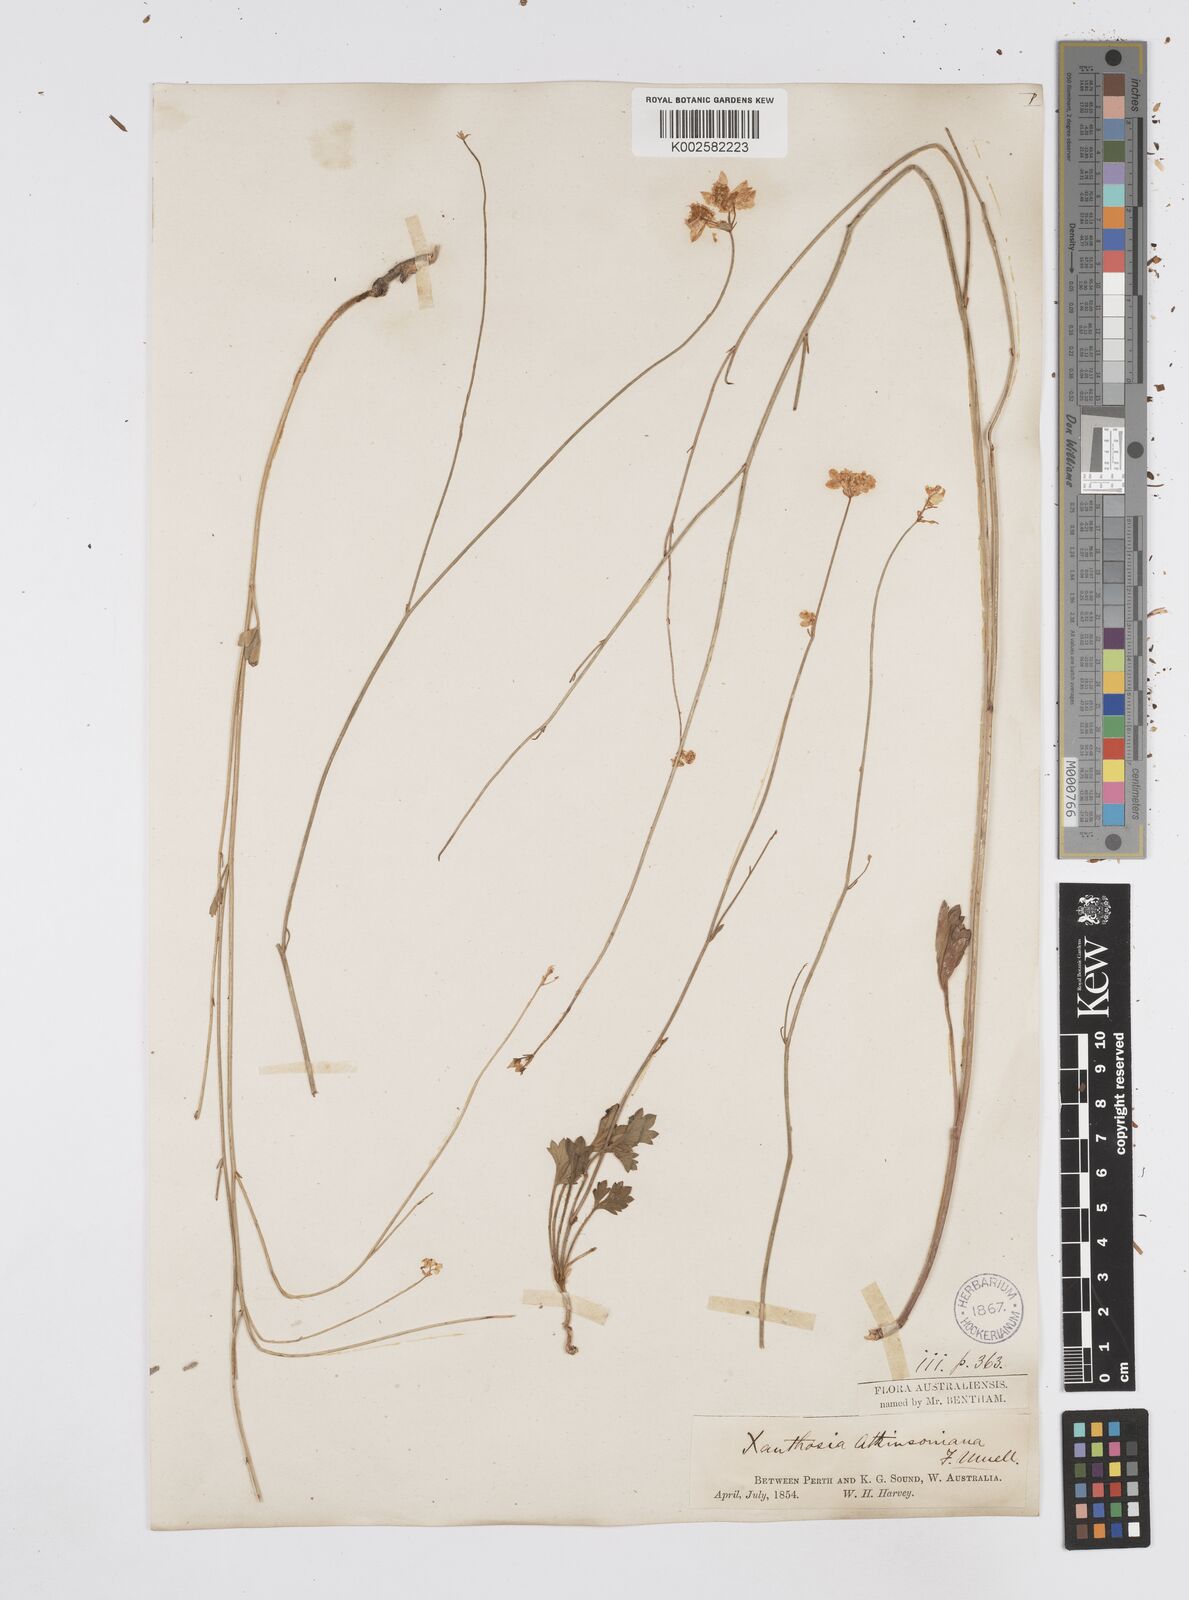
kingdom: Plantae
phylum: Tracheophyta
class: Magnoliopsida
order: Apiales
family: Apiaceae
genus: Xanthosia
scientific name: Xanthosia atkinsoniana
